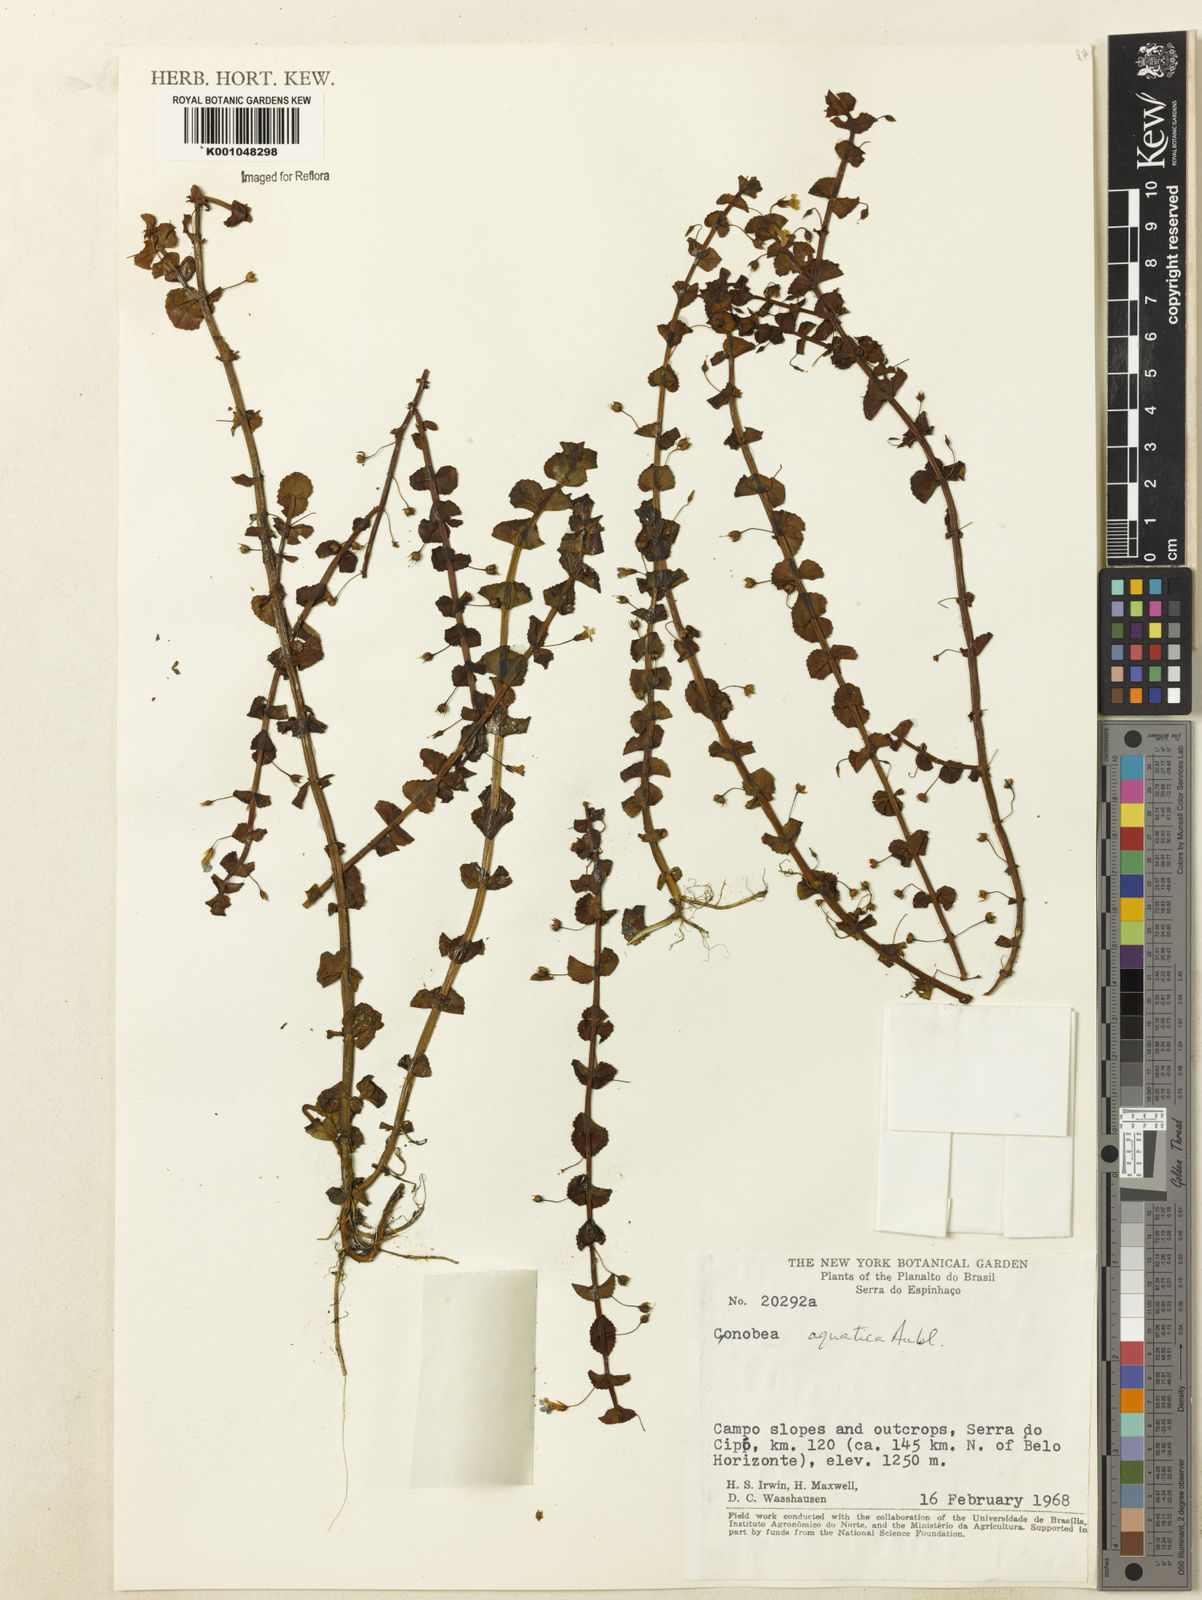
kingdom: Plantae
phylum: Tracheophyta
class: Magnoliopsida
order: Lamiales
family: Plantaginaceae
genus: Conobea
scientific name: Conobea aquatica
